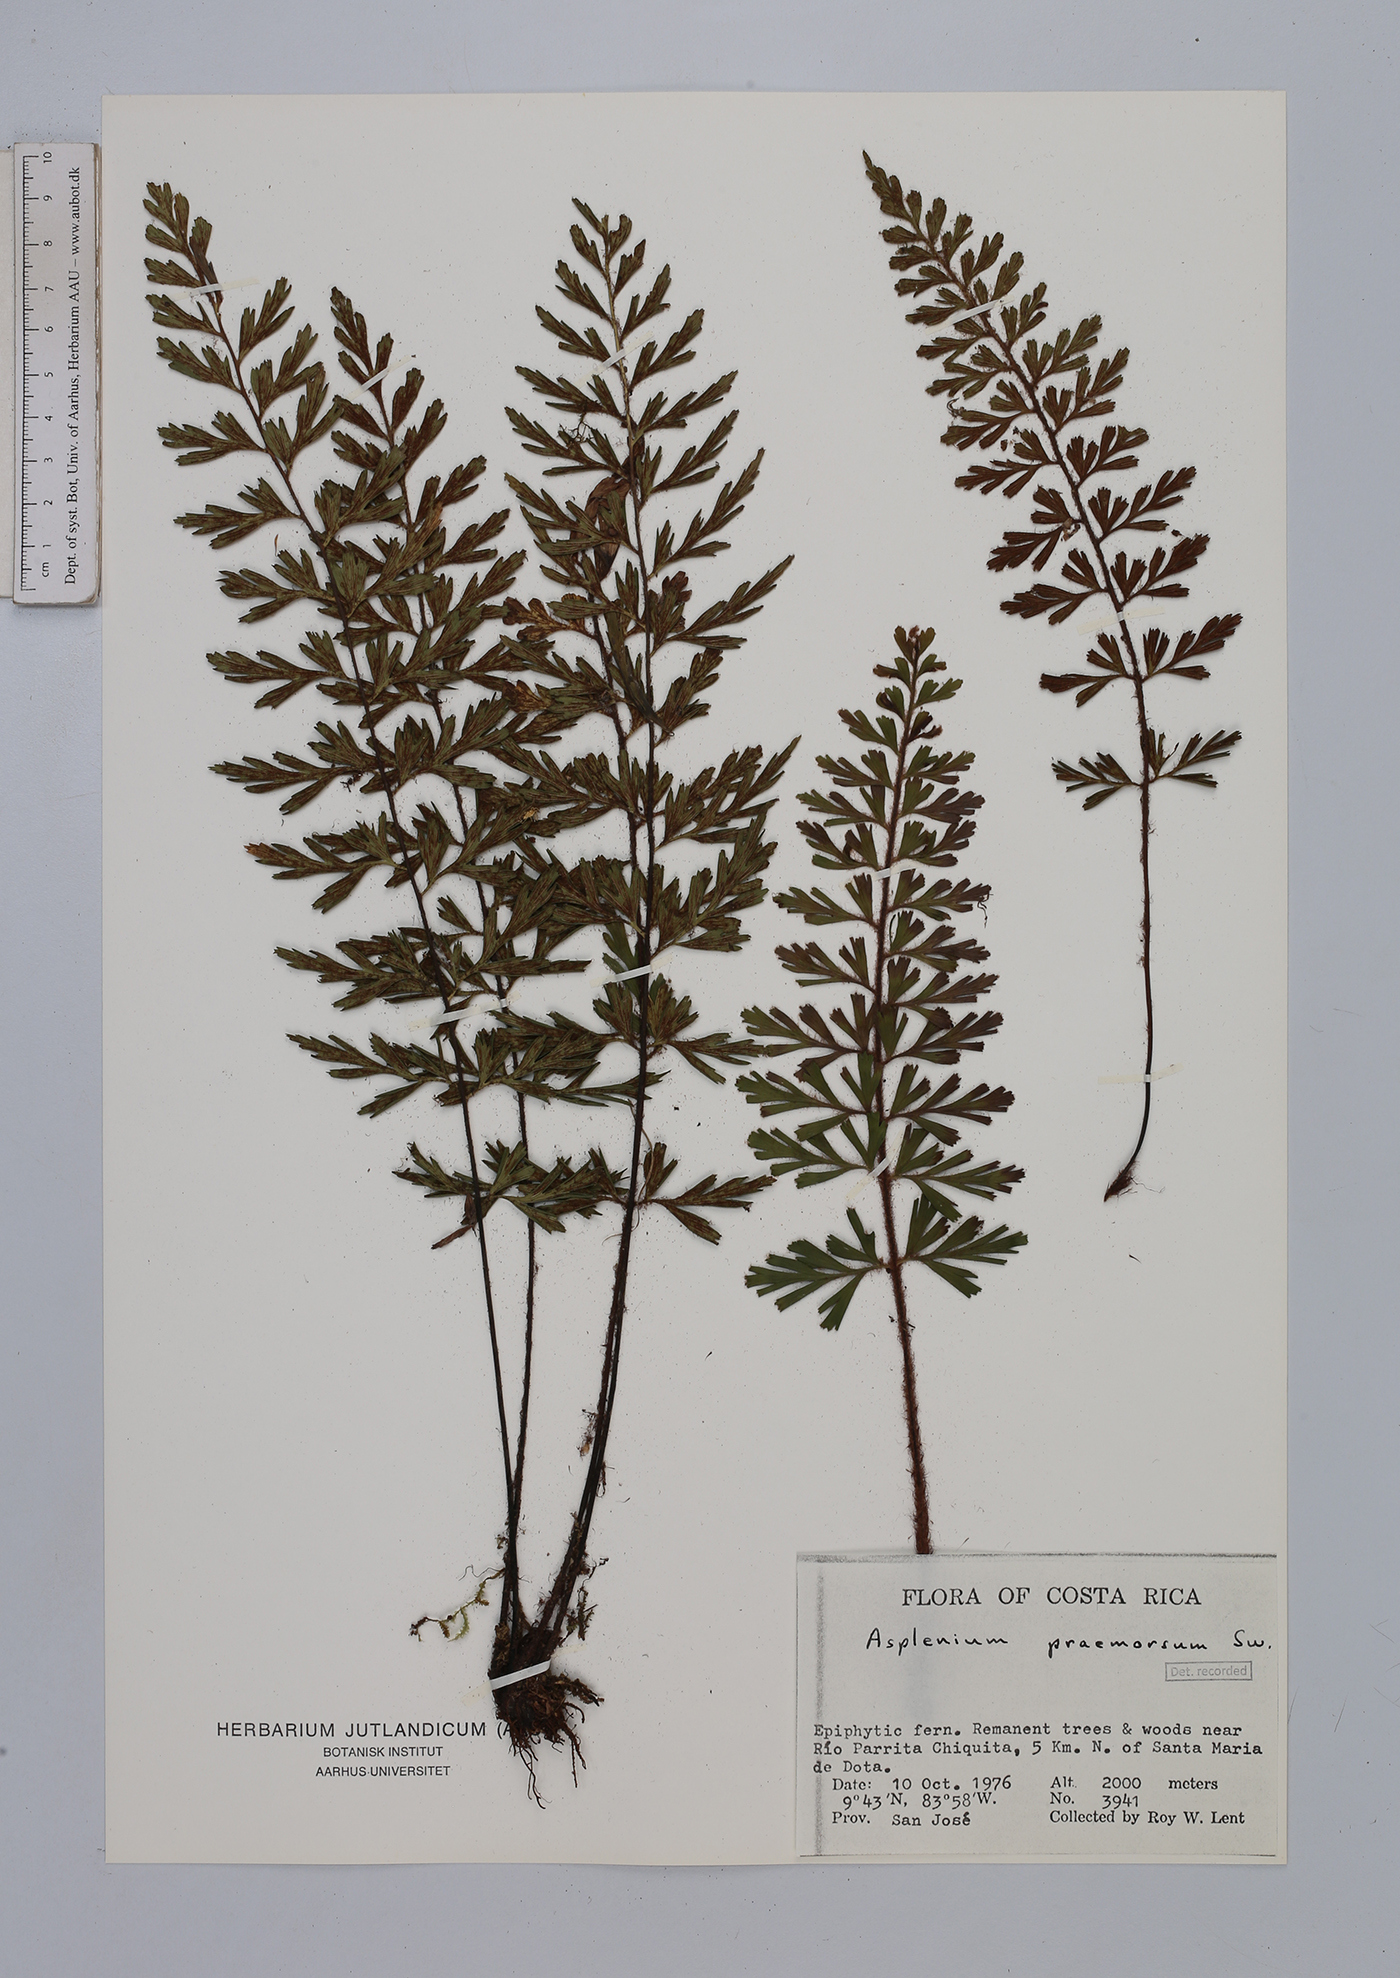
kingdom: Plantae
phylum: Tracheophyta
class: Polypodiopsida
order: Polypodiales
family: Aspleniaceae
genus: Asplenium
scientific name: Asplenium praemorsum
